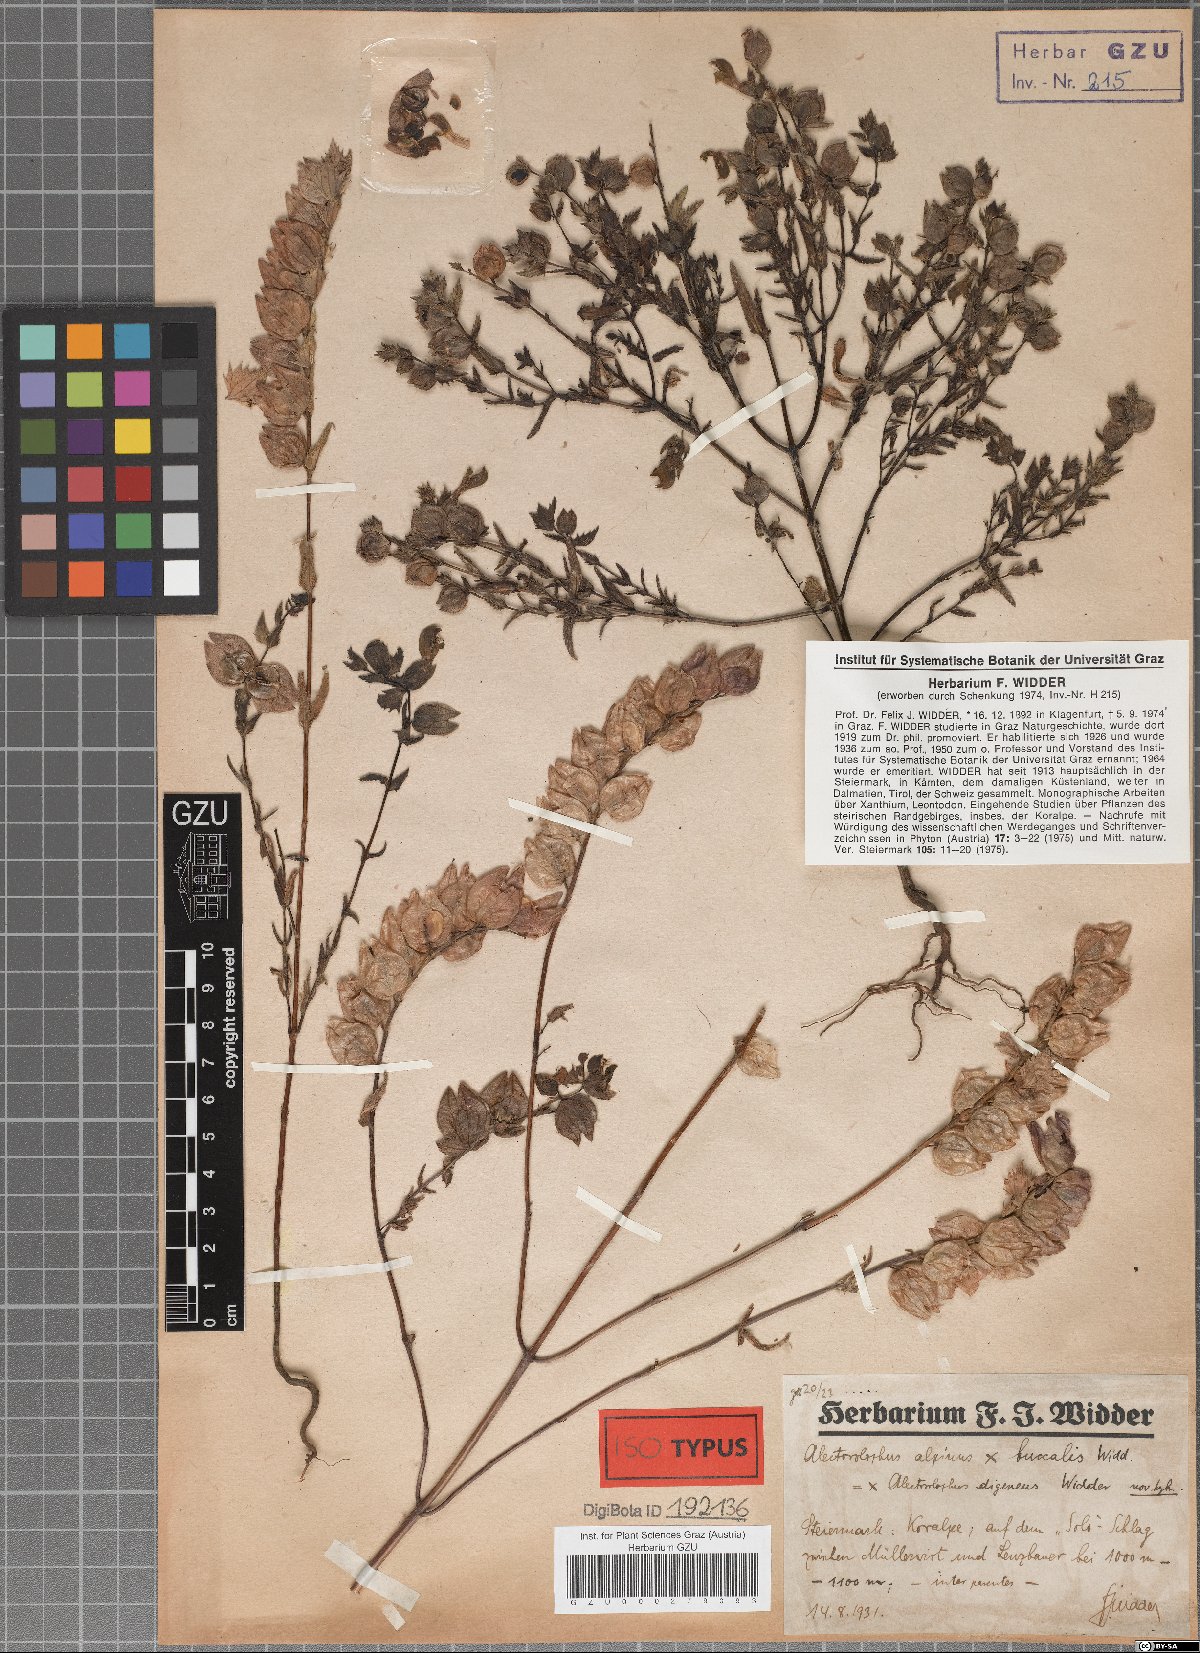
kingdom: Plantae
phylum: Tracheophyta
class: Magnoliopsida
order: Lamiales
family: Scrophulariaceae
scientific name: Scrophulariaceae
